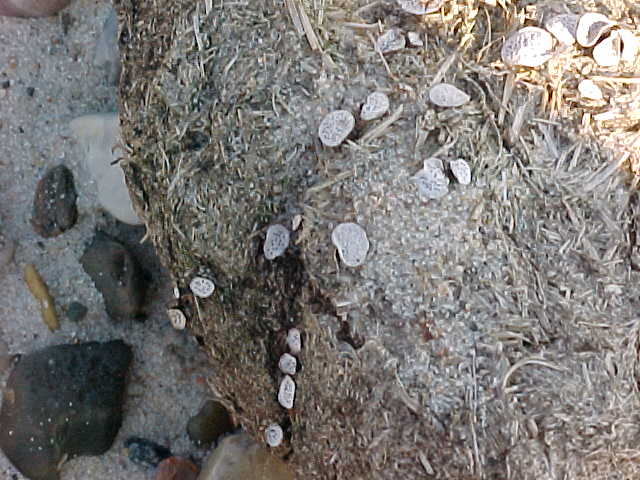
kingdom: Fungi
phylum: Ascomycota
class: Sordariomycetes
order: Xylariales
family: Xylariaceae
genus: Poronia
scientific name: Poronia punctata
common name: stor priksvamp
